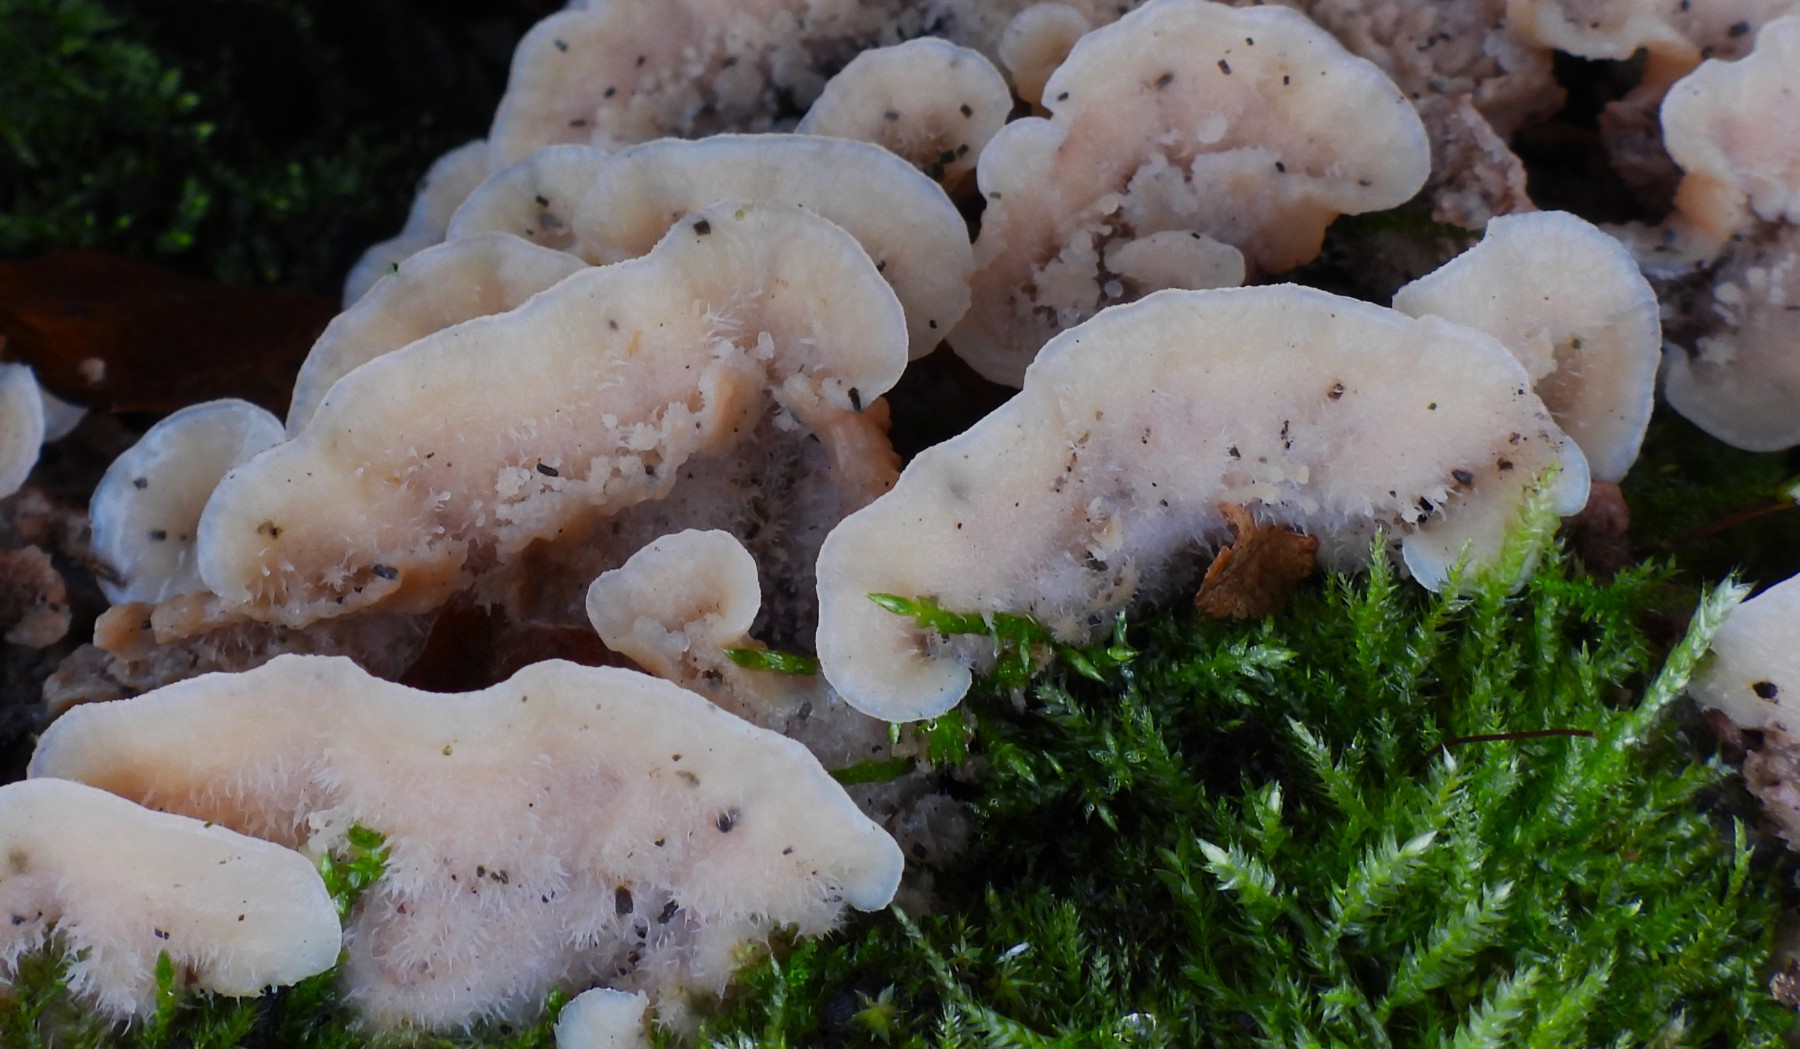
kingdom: Fungi
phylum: Basidiomycota
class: Agaricomycetes
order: Polyporales
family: Meruliaceae
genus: Phlebia
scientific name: Phlebia tremellosa
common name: bævrende åresvamp
